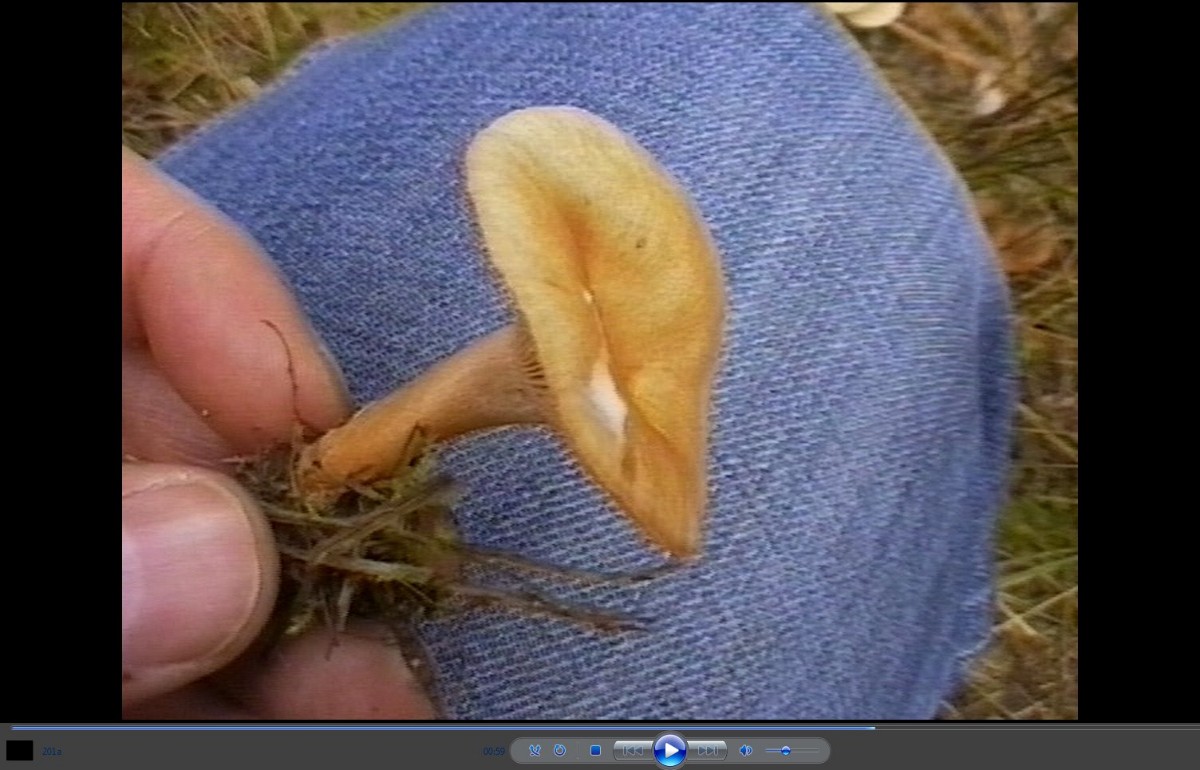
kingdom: Fungi
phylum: Basidiomycota
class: Agaricomycetes
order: Russulales
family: Russulaceae
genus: Lactarius
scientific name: Lactarius glyciosmus
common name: kokos-mælkehat
